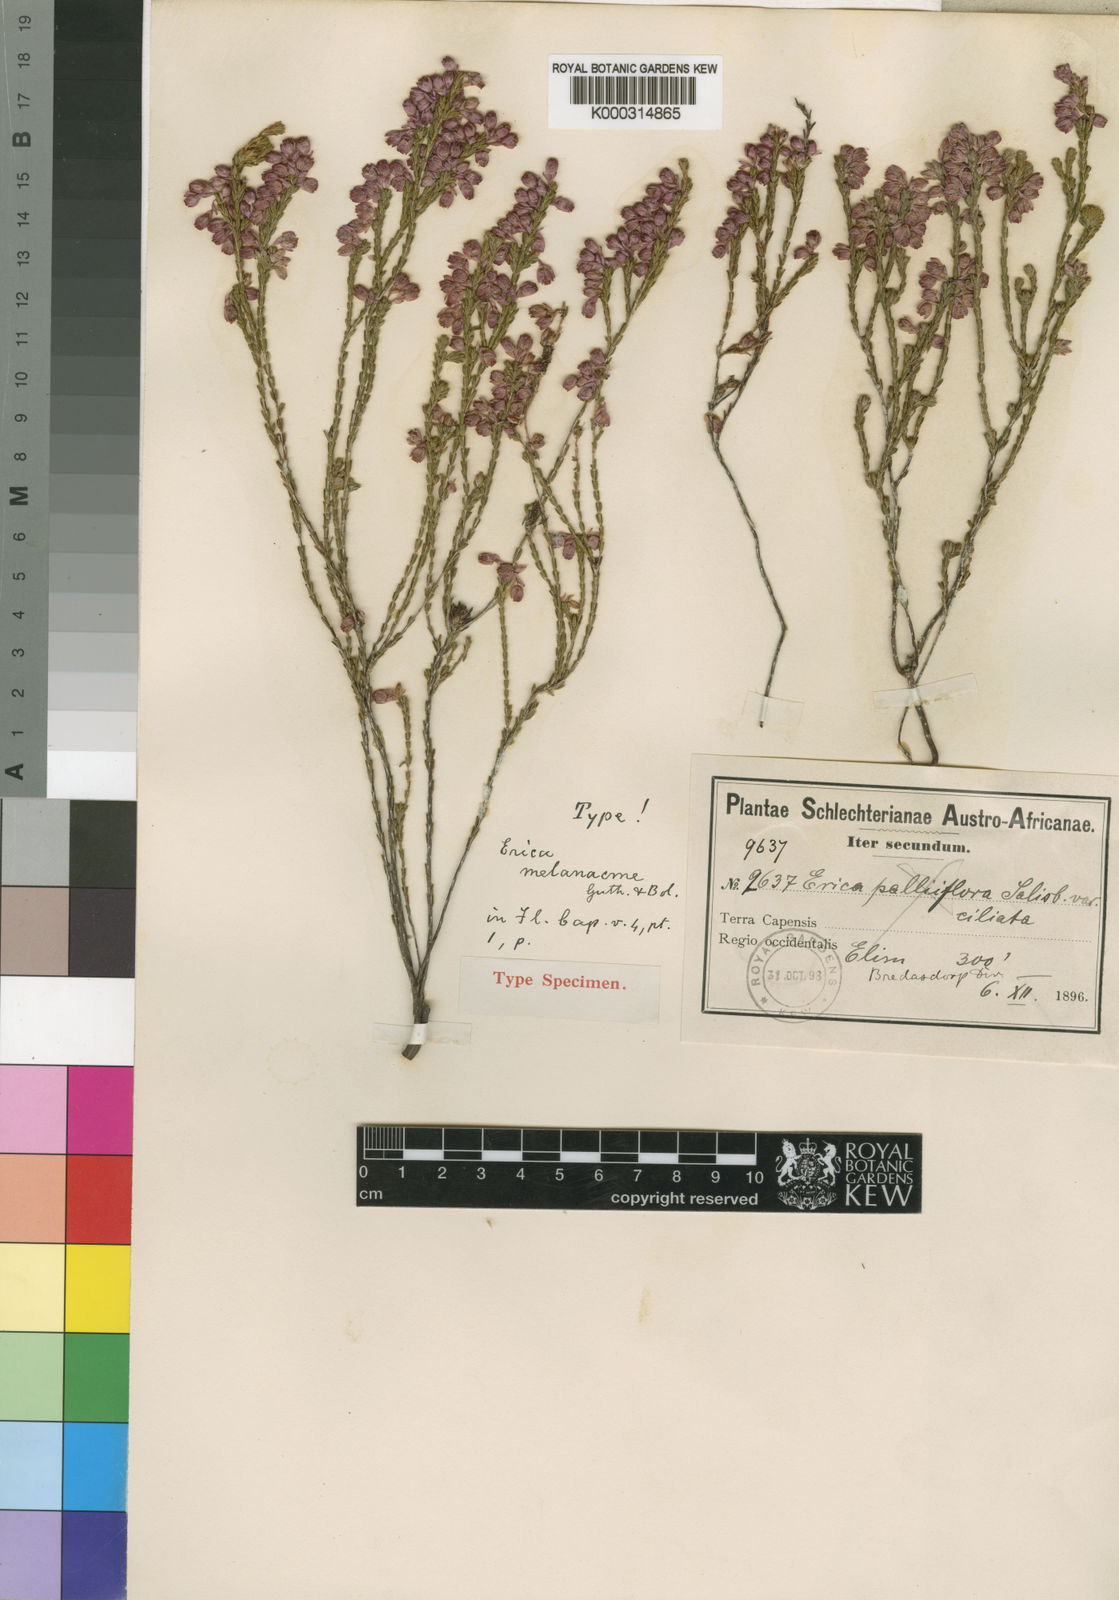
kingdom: Plantae
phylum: Tracheophyta
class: Magnoliopsida
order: Ericales
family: Ericaceae
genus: Erica
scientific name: Erica melanacme
